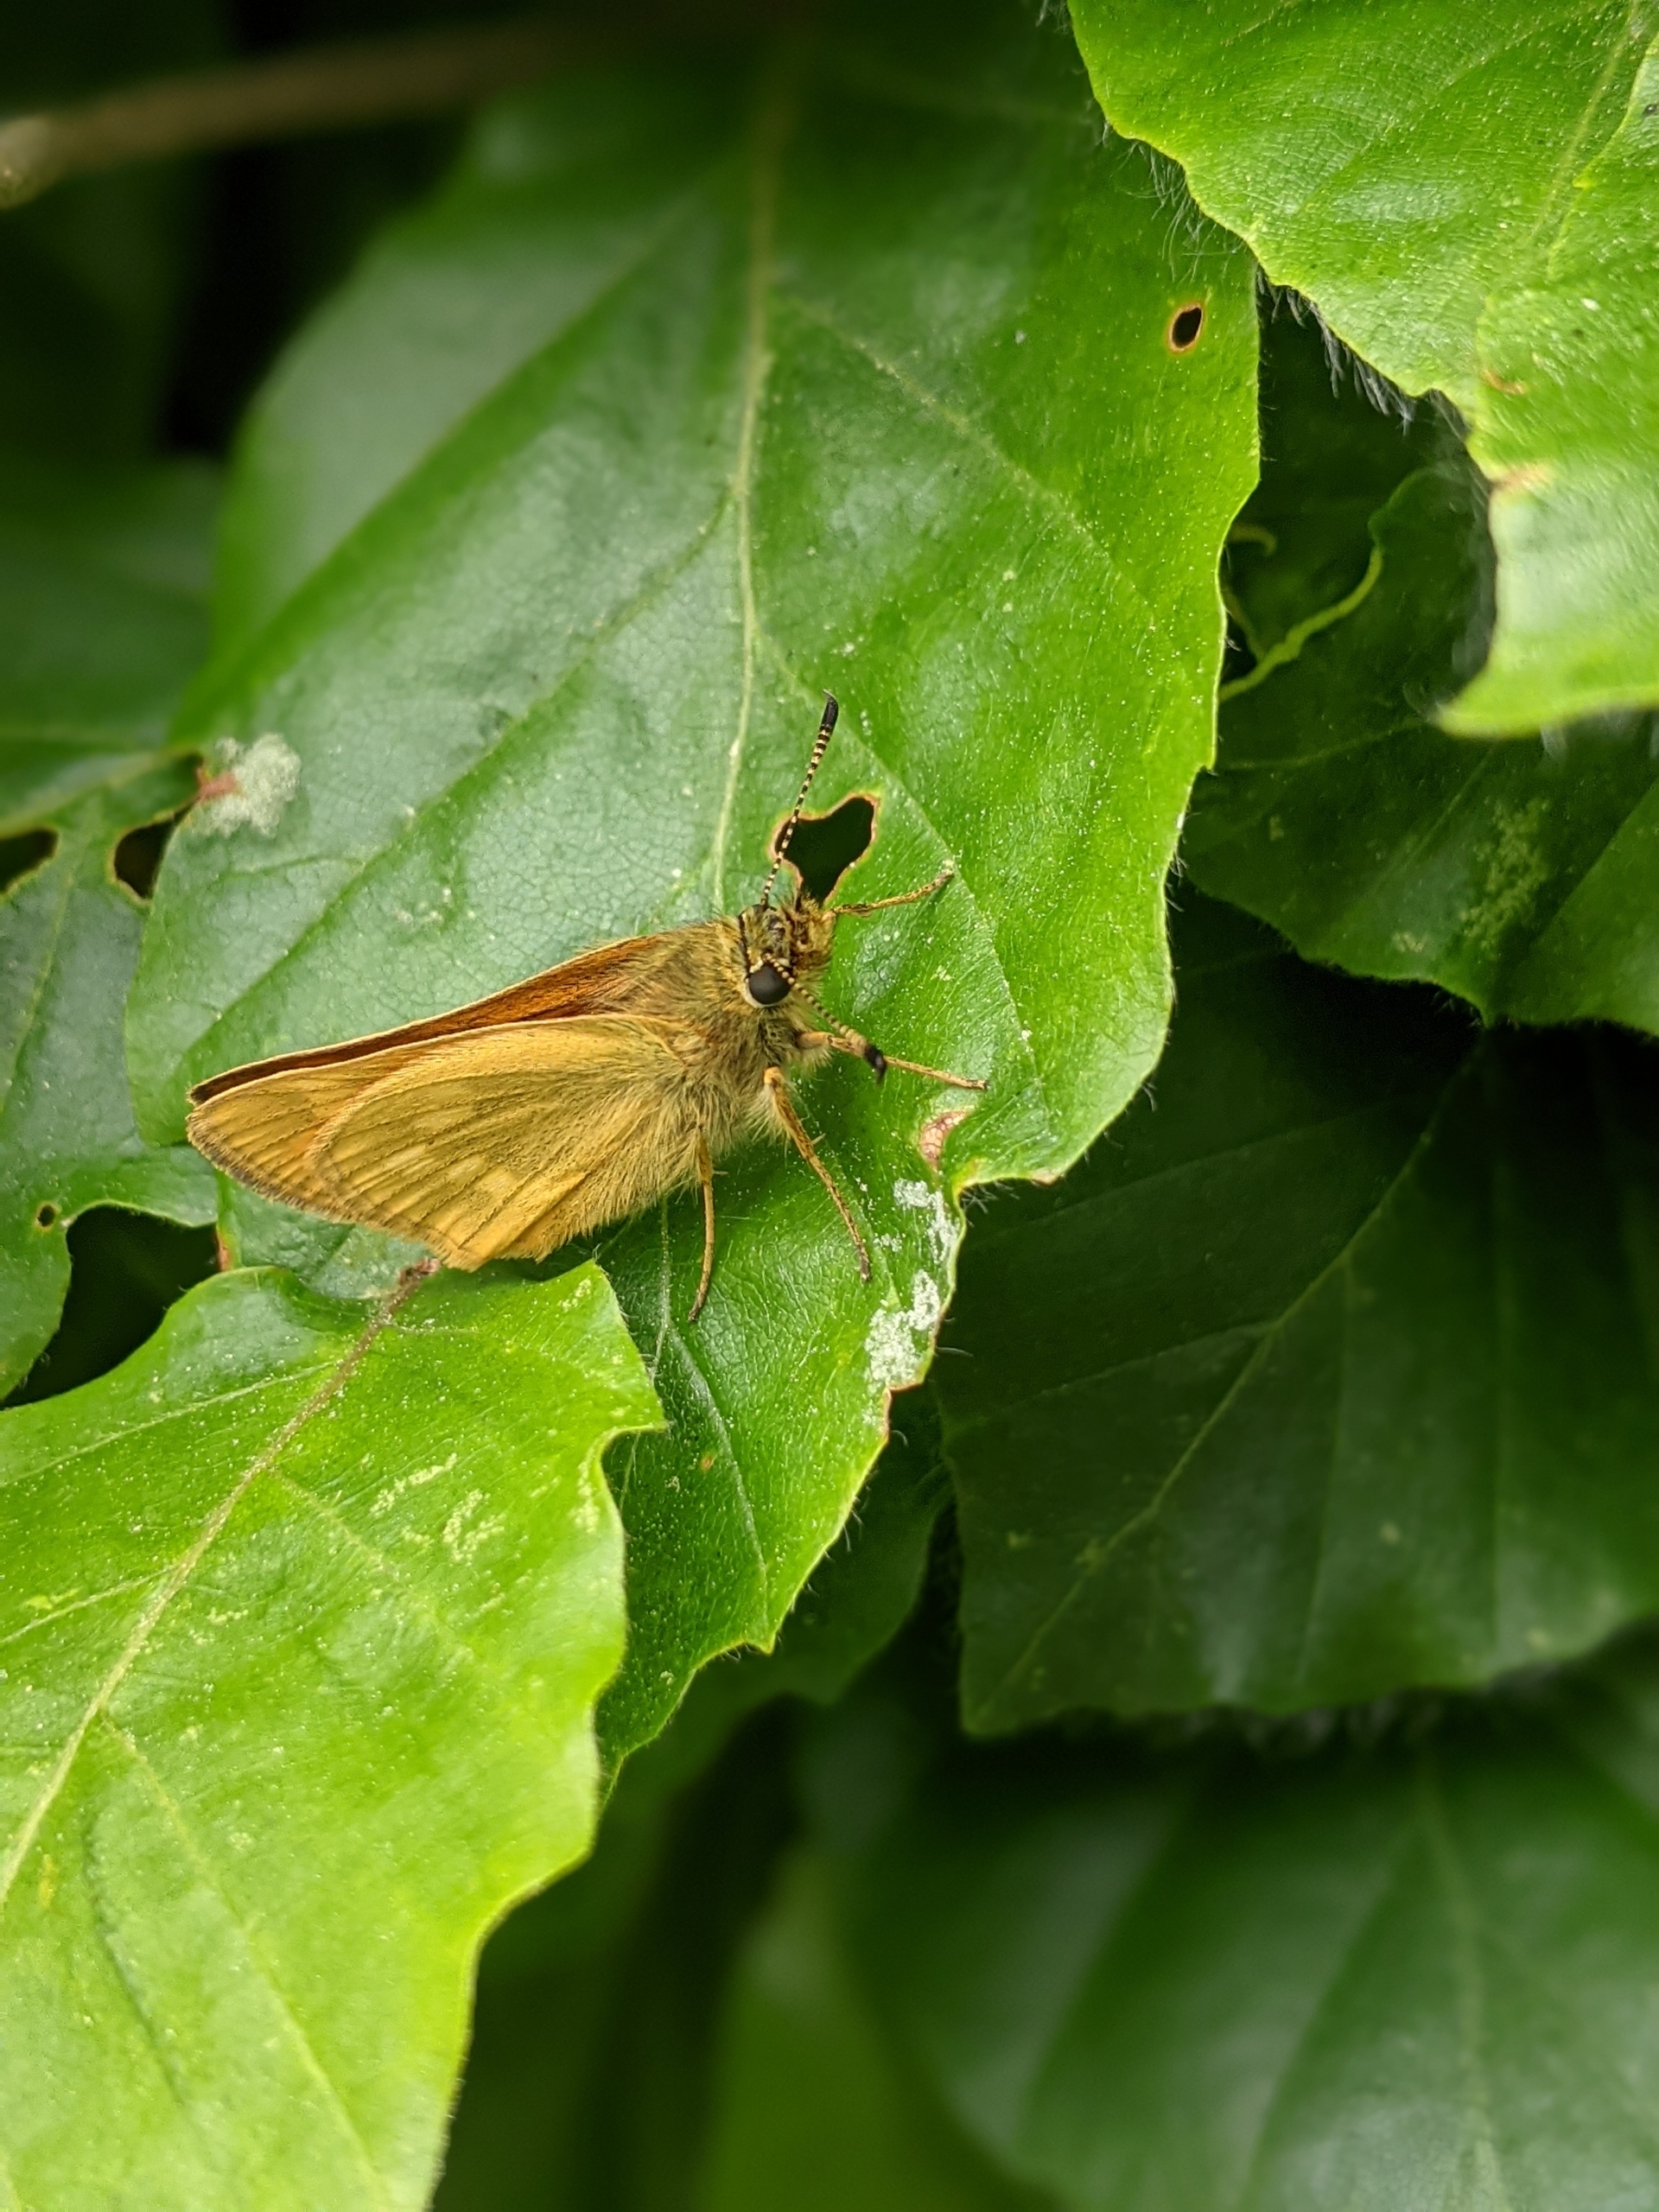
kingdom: Animalia
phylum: Arthropoda
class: Insecta
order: Lepidoptera
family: Hesperiidae
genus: Ochlodes
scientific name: Ochlodes venata
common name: Stor bredpande
